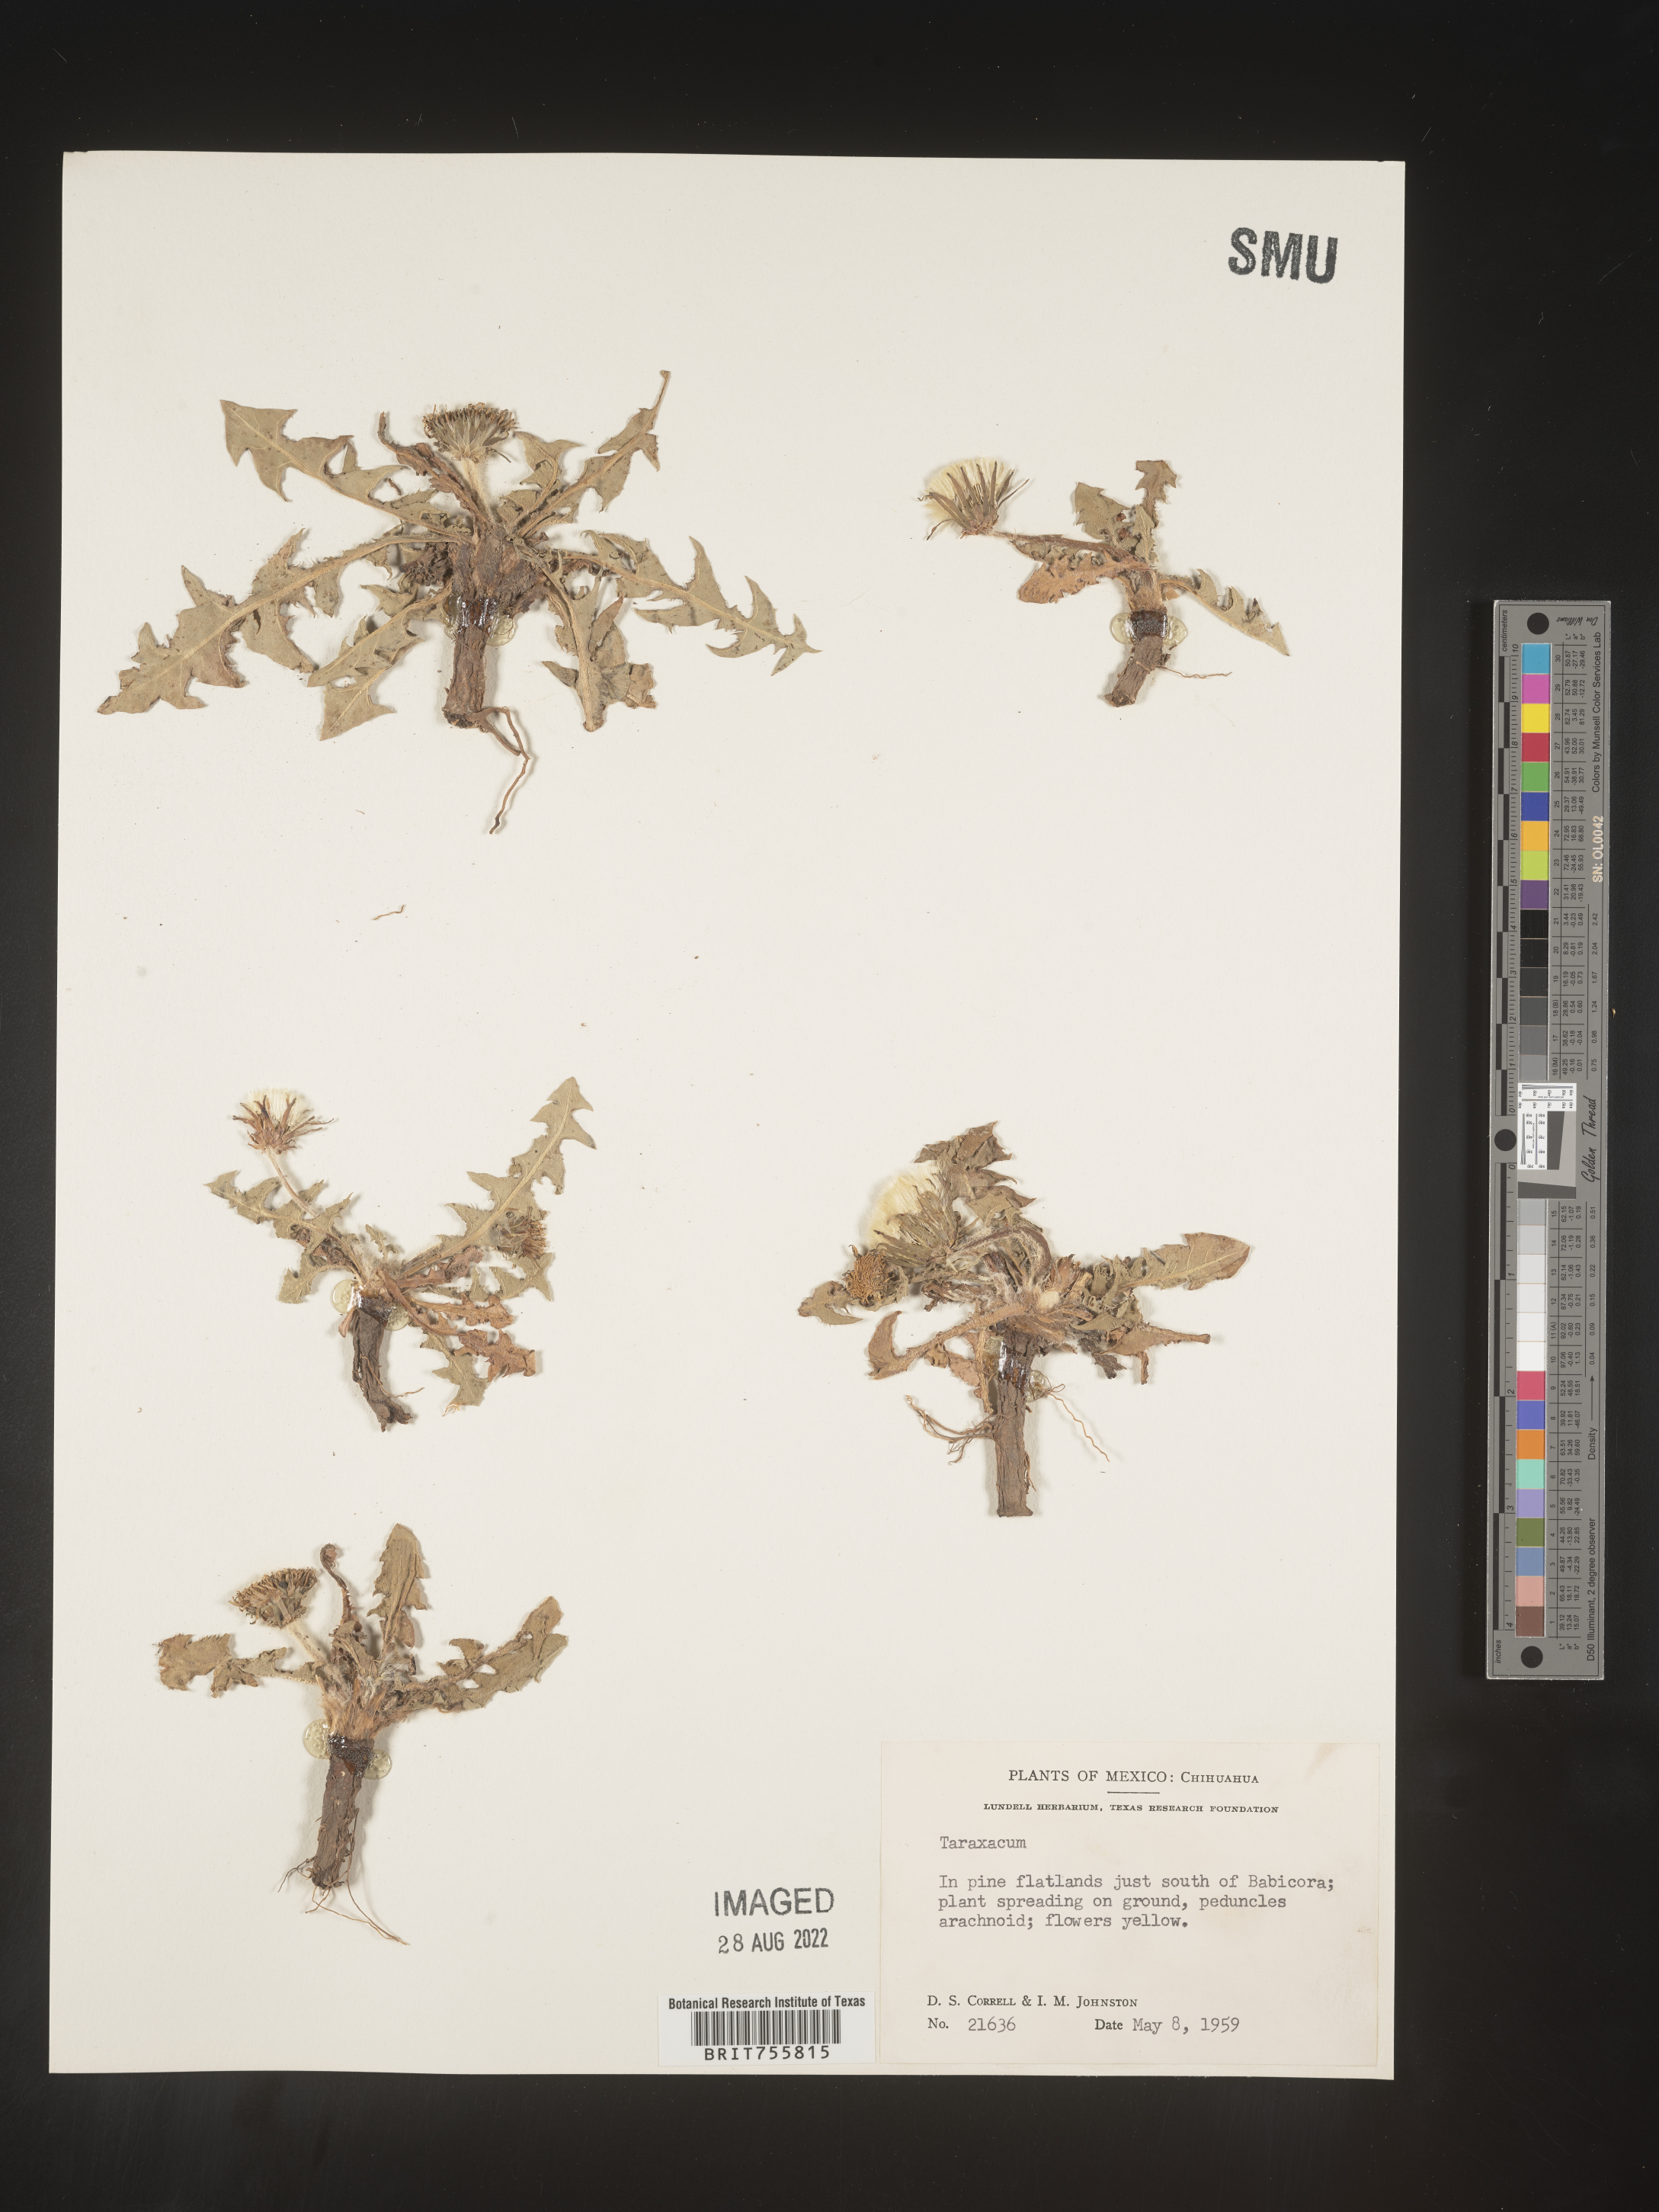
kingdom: Plantae
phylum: Tracheophyta
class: Magnoliopsida
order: Asterales
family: Asteraceae
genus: Taraxacum
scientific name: Taraxacum
